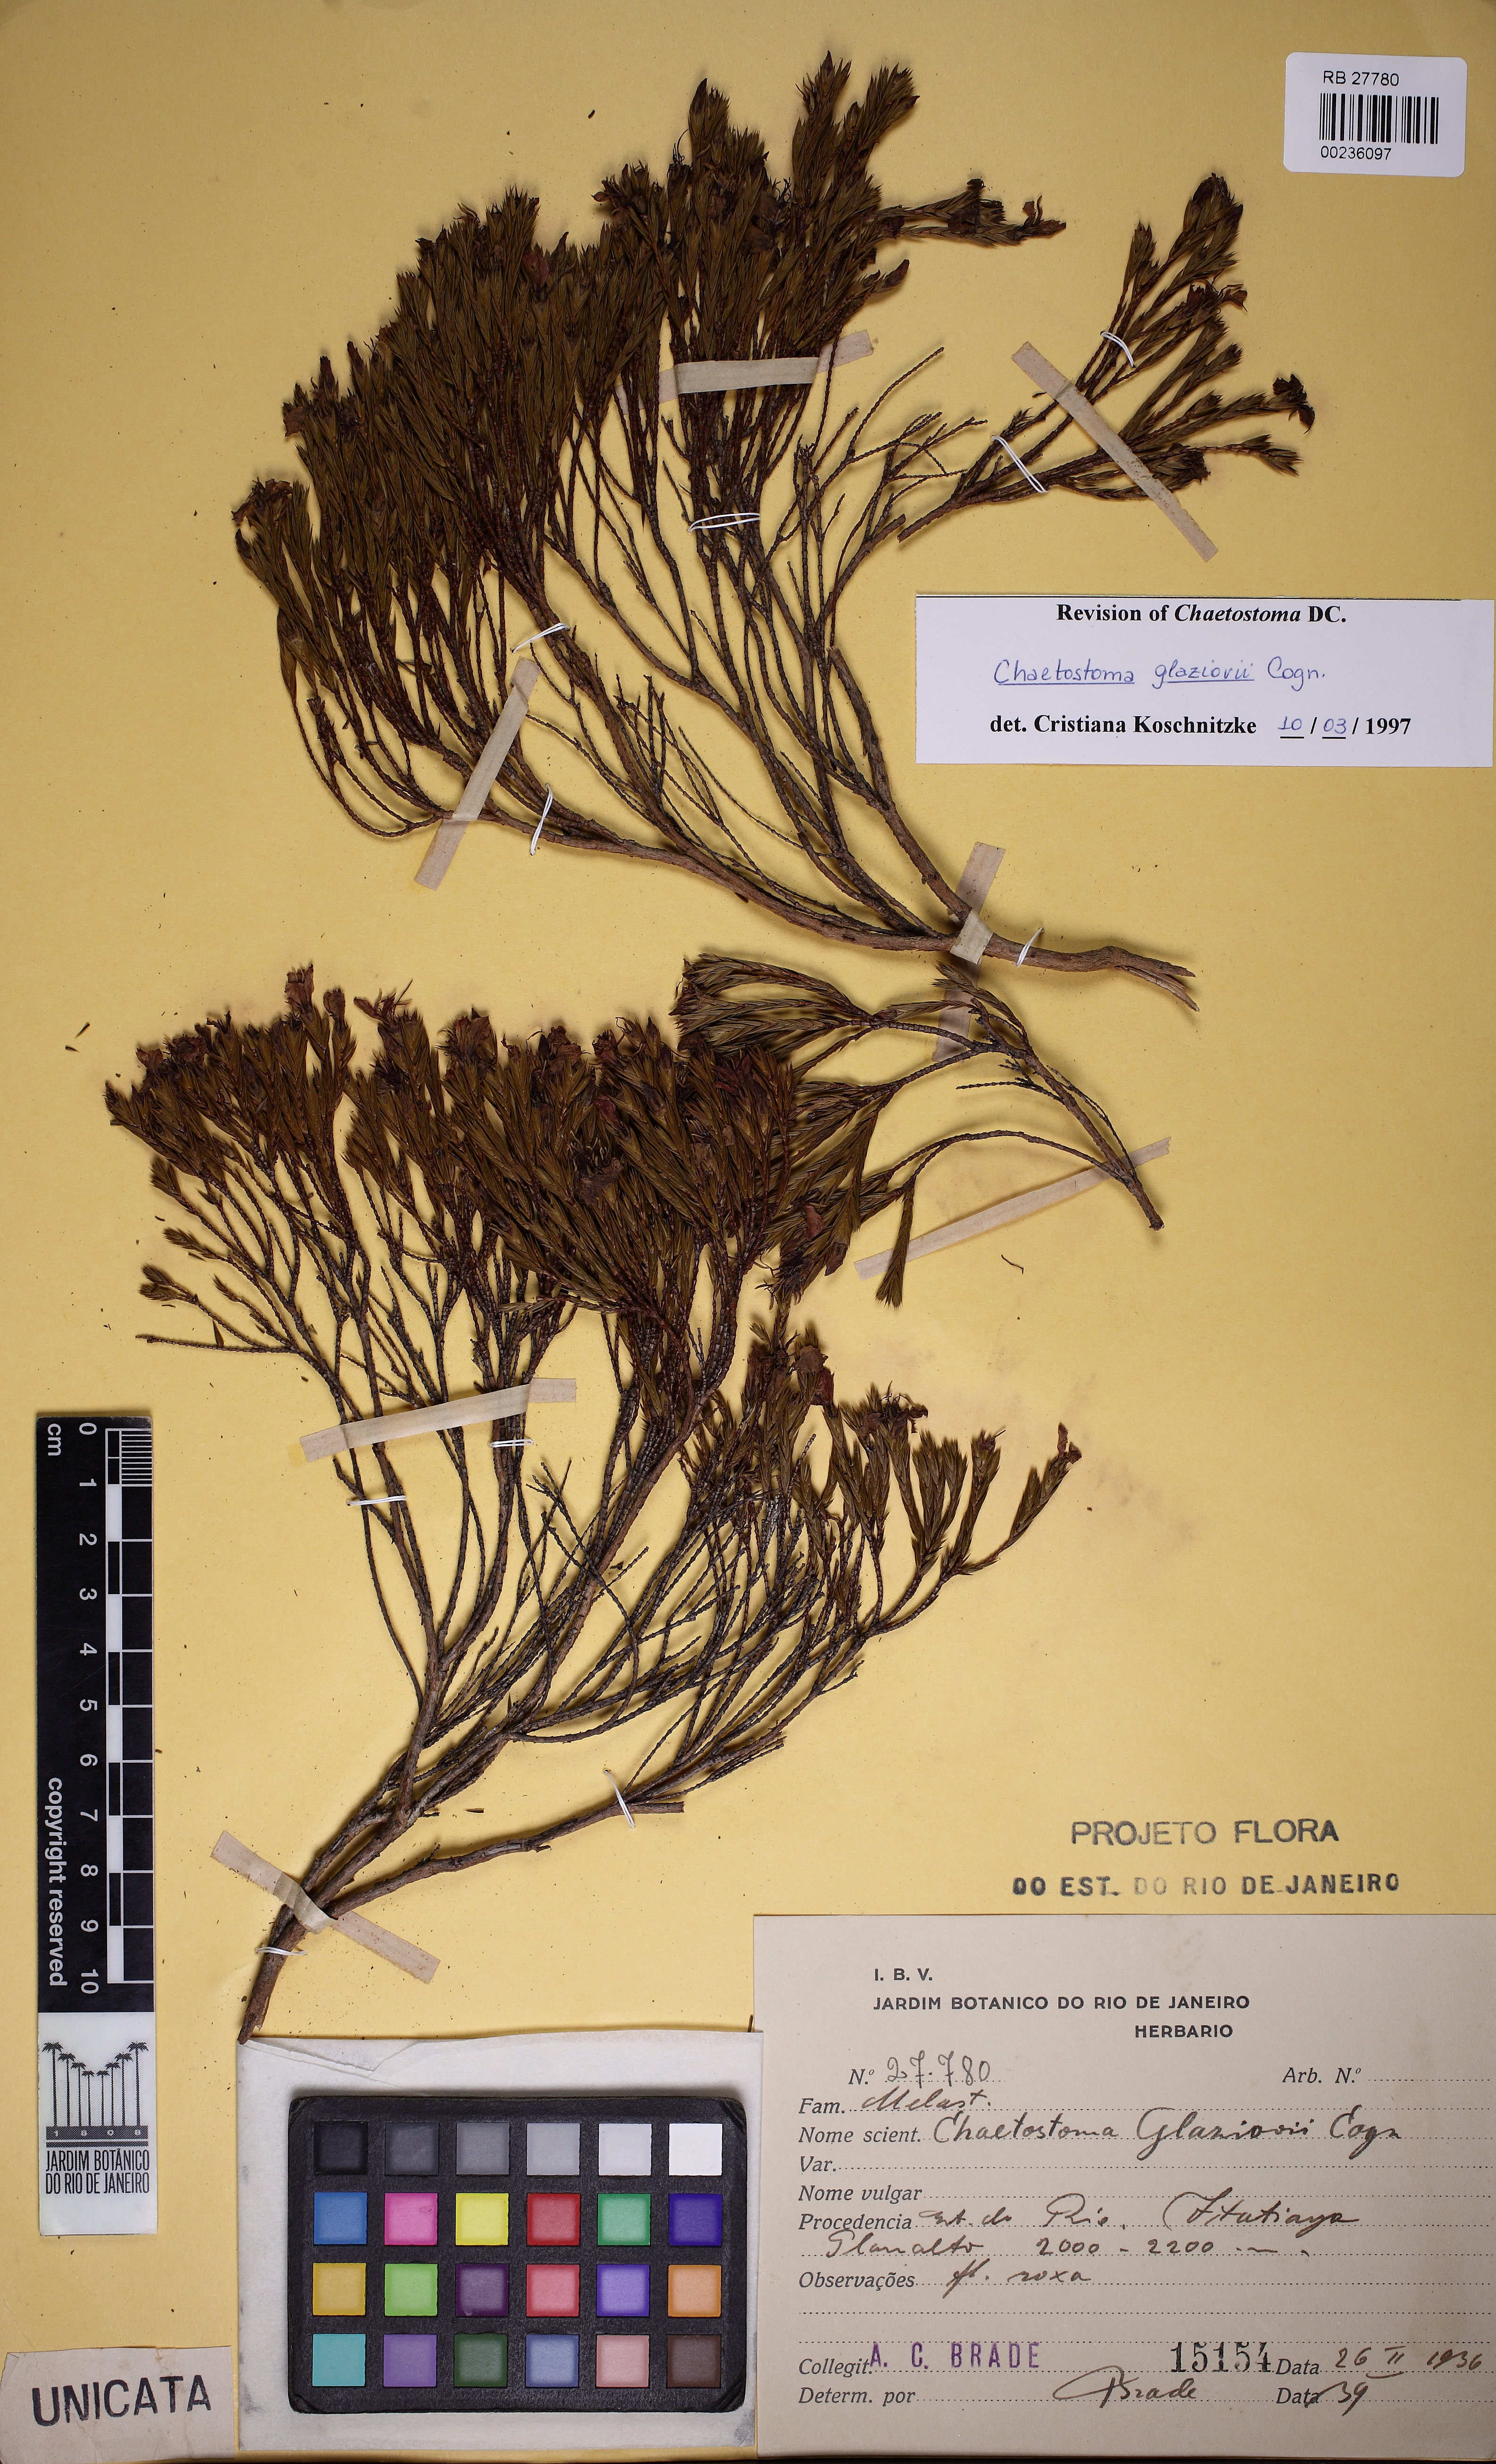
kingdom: Plantae
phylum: Tracheophyta
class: Magnoliopsida
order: Myrtales
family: Melastomataceae
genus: Microlicia
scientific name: Microlicia glaziovii
